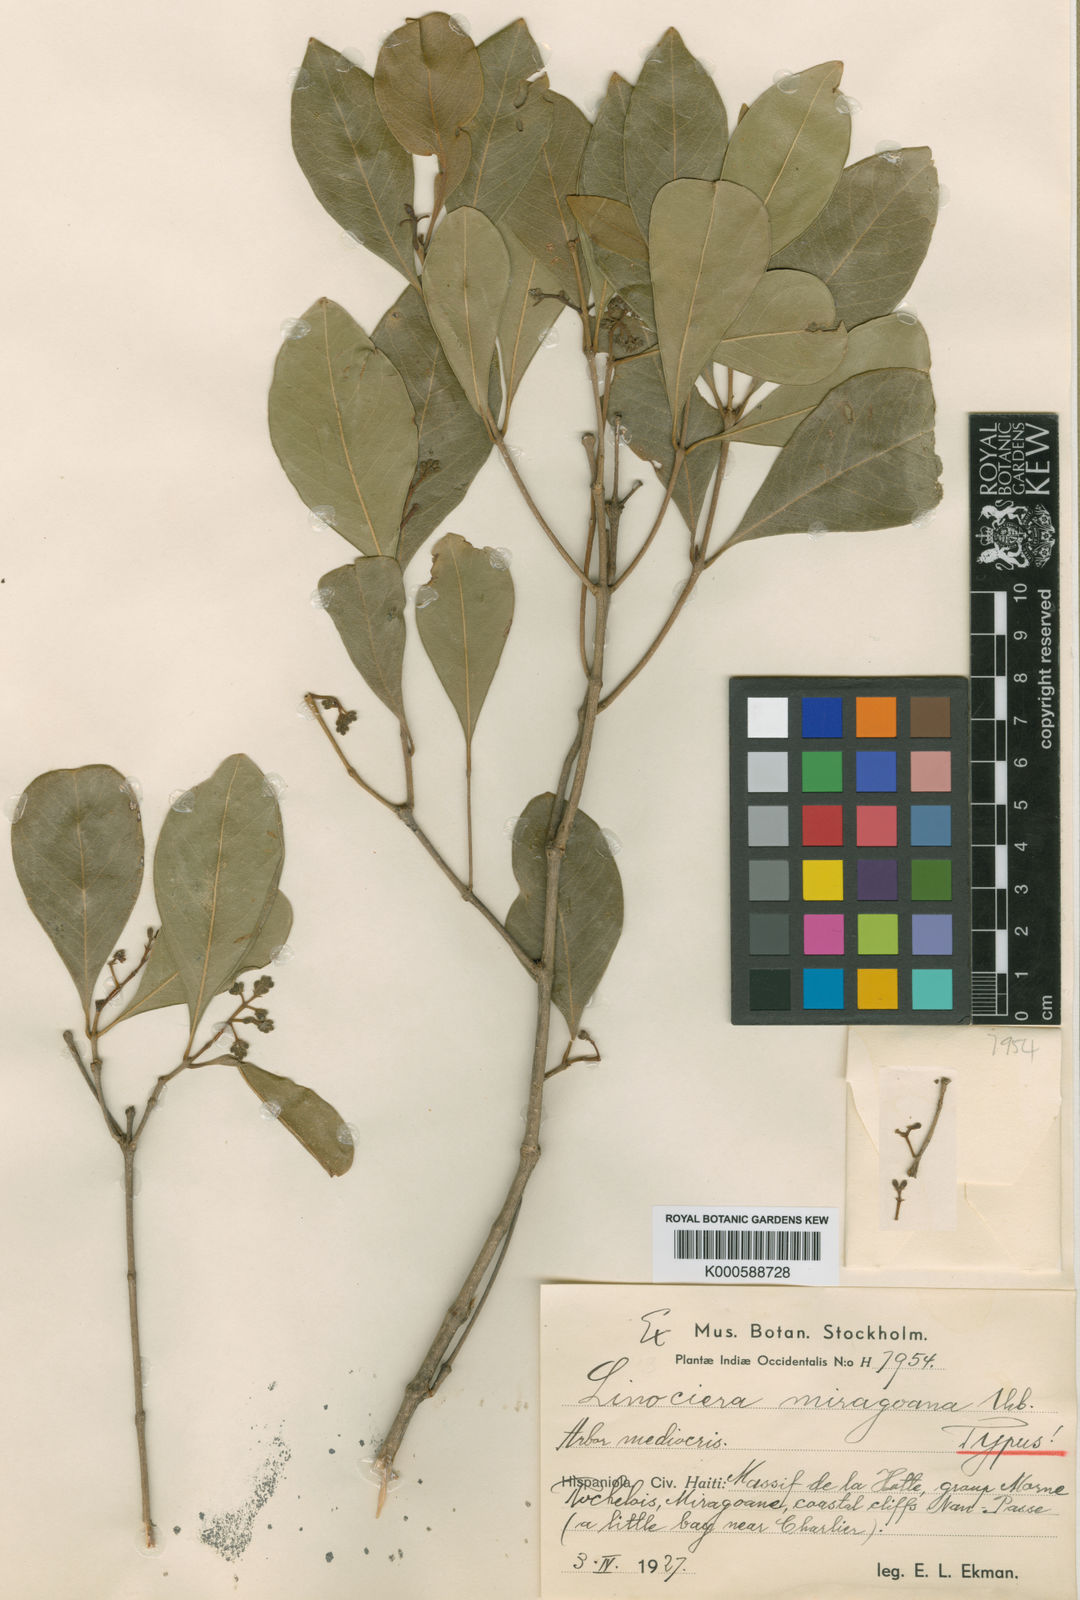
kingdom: Plantae
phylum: Tracheophyta
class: Magnoliopsida
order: Lamiales
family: Oleaceae
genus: Chionanthus
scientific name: Chionanthus bumelioides
